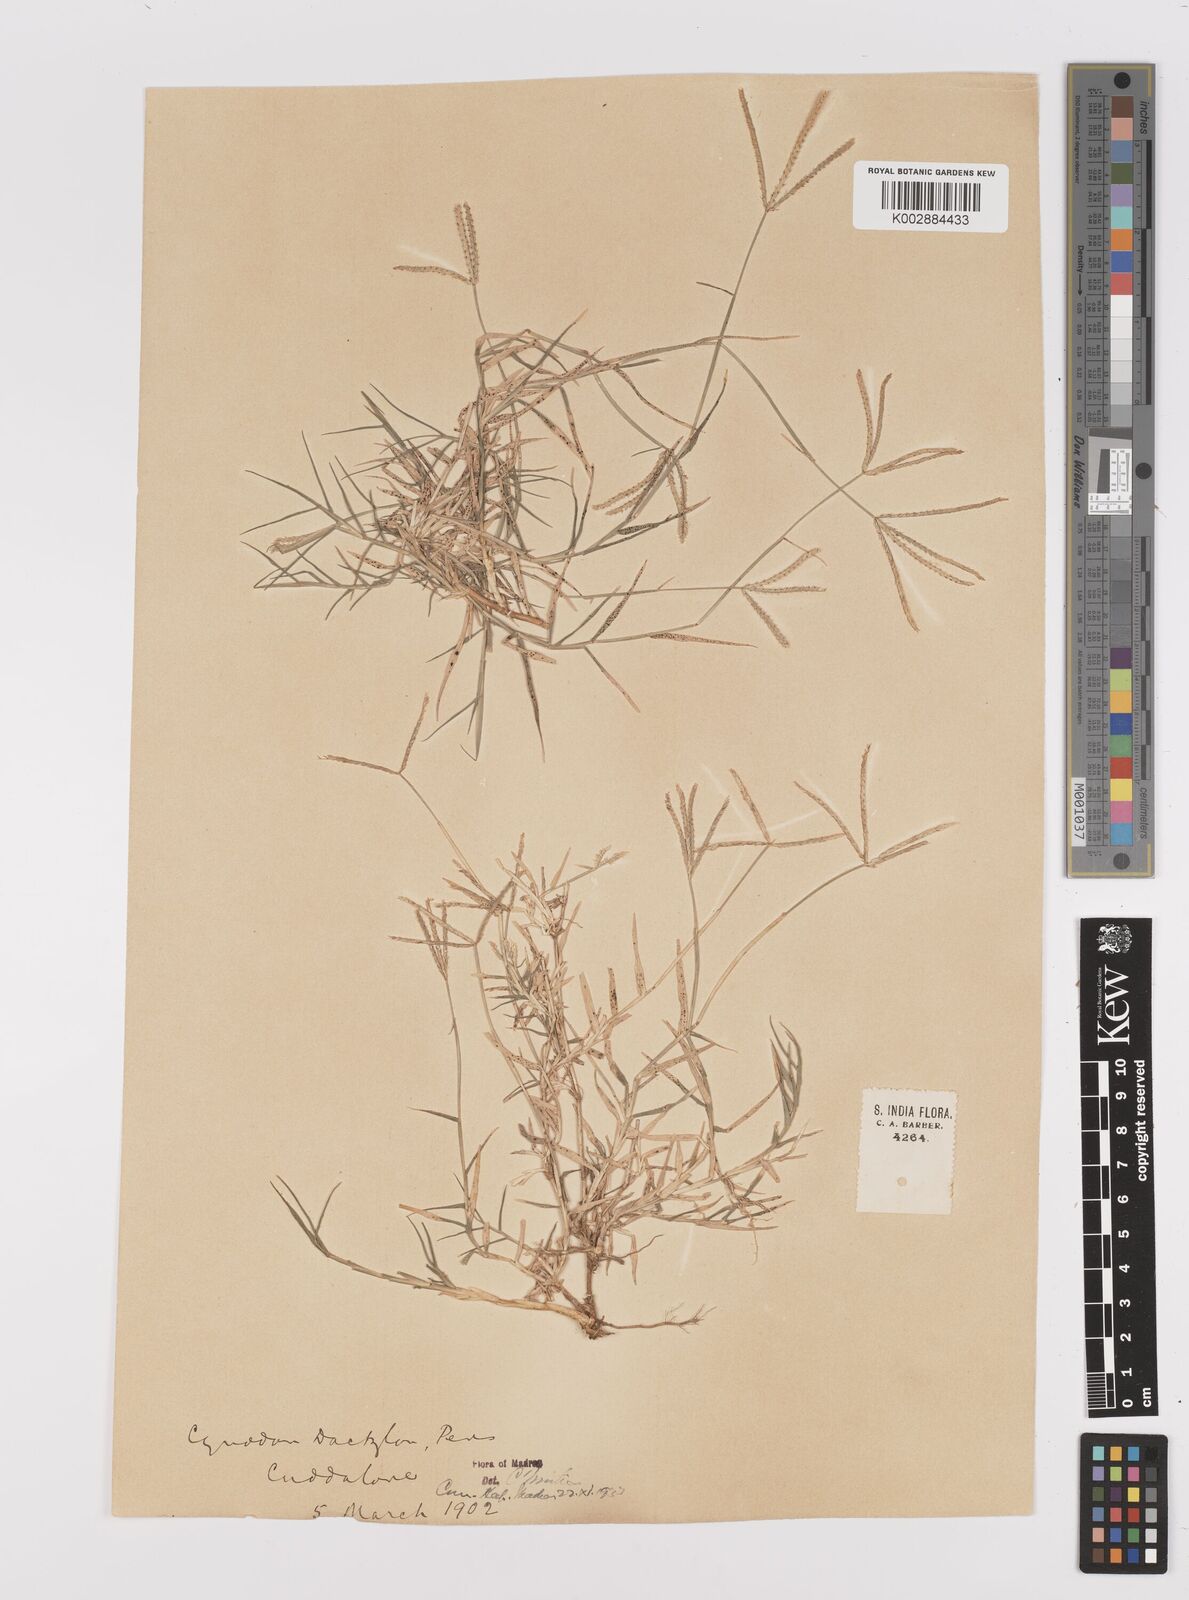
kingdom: Plantae
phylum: Tracheophyta
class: Liliopsida
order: Poales
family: Poaceae
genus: Cynodon
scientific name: Cynodon dactylon
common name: Bermuda grass
